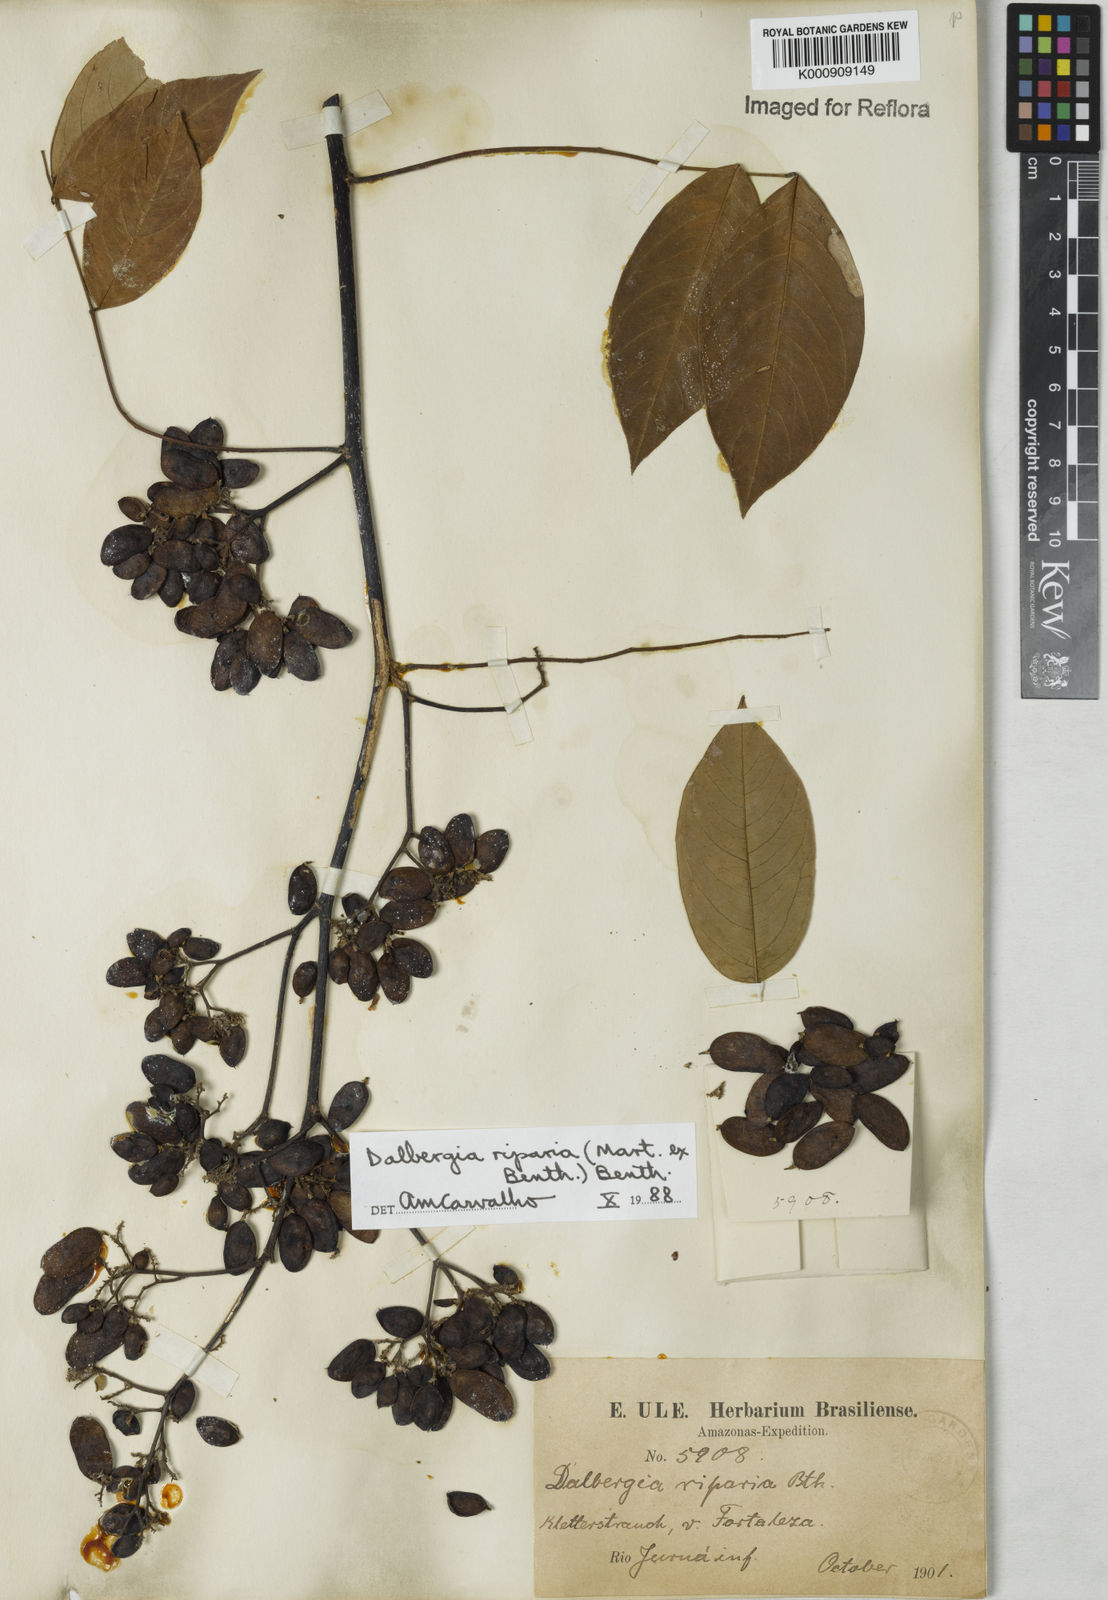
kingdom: Plantae
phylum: Tracheophyta
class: Magnoliopsida
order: Fabales
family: Fabaceae
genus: Dalbergia
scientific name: Dalbergia riparia
